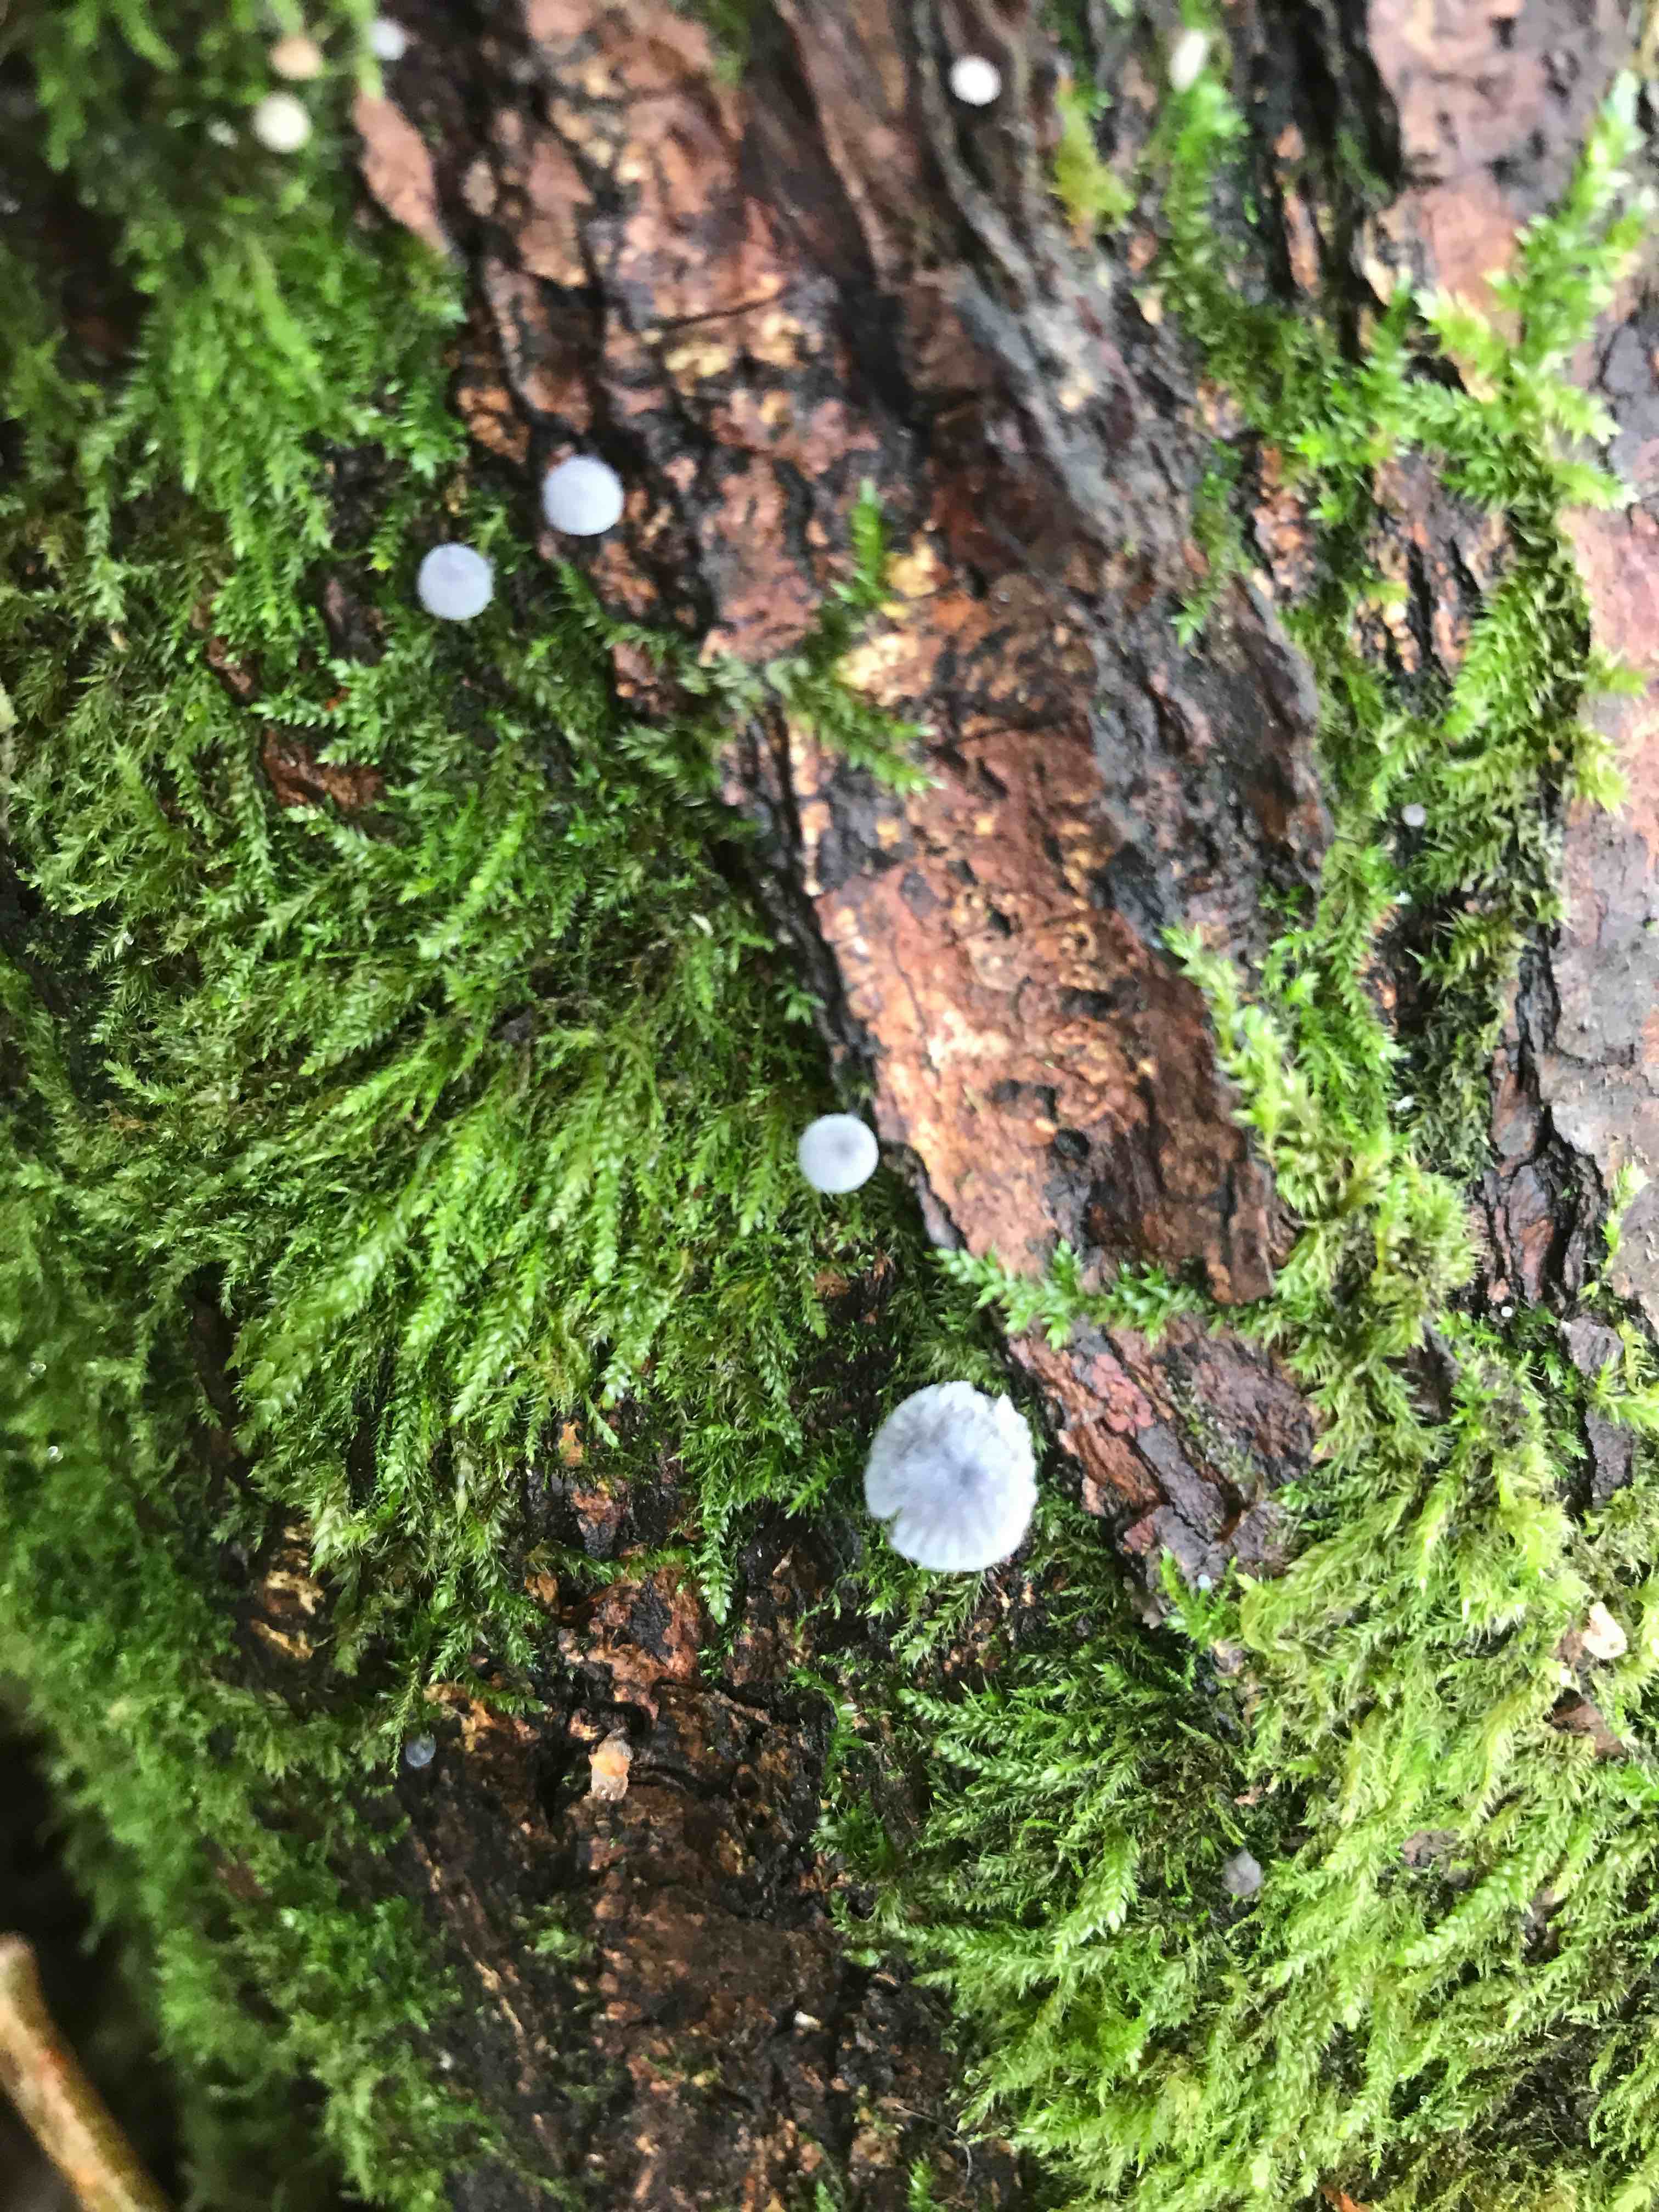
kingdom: Fungi
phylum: Basidiomycota
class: Agaricomycetes
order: Agaricales
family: Mycenaceae
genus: Mycena
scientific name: Mycena pseudocorticola
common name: gråblå bark-huesvamp
